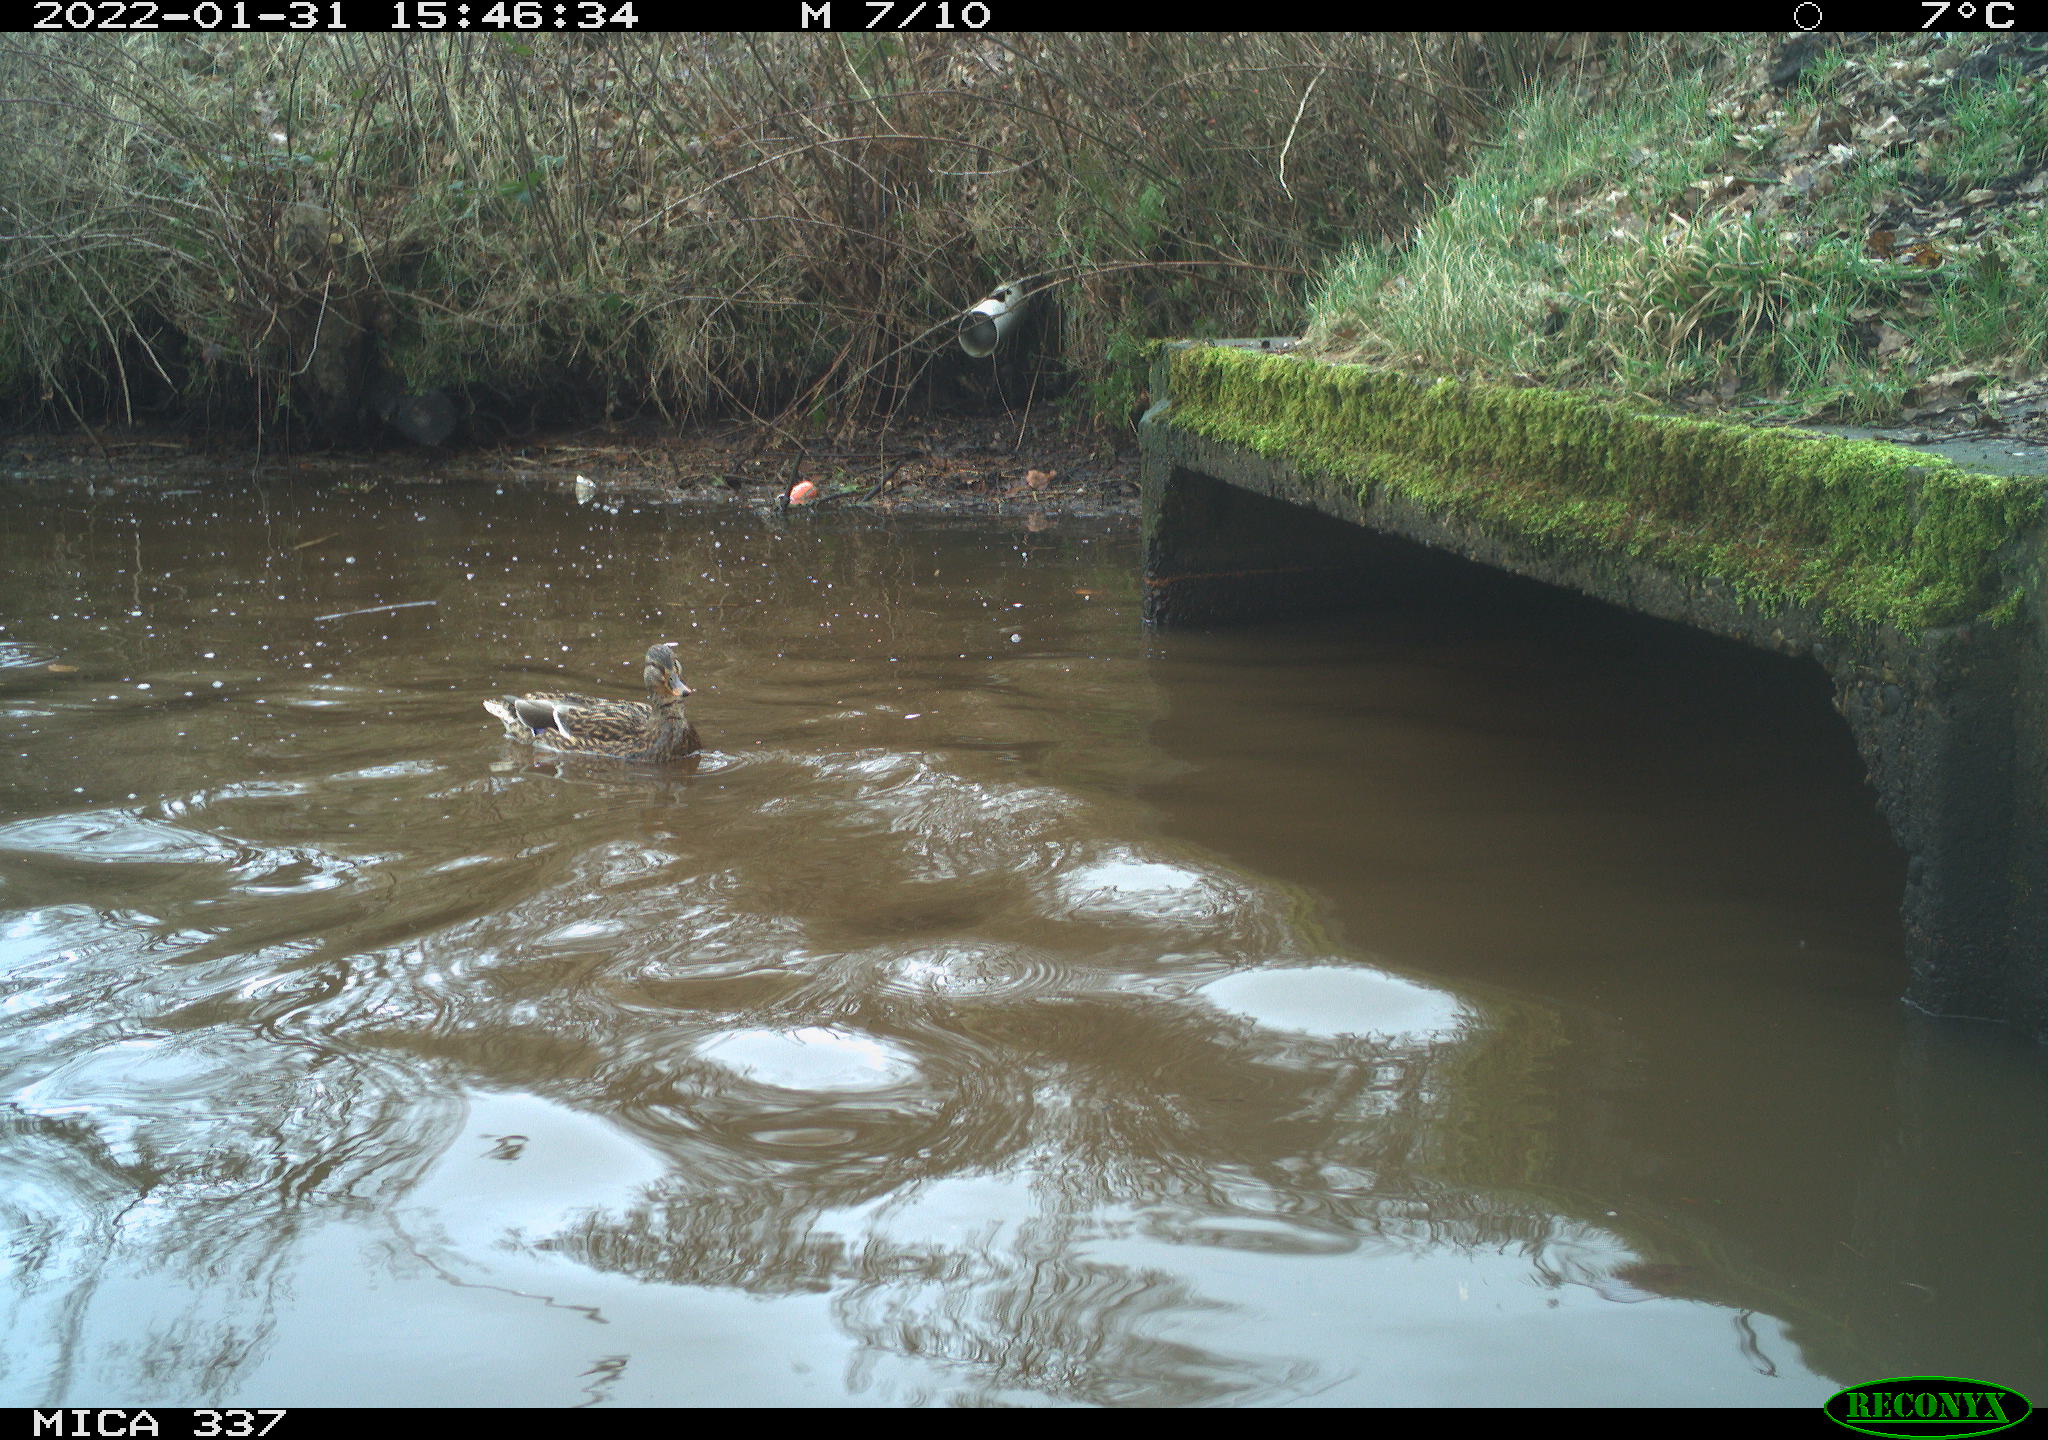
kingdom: Animalia
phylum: Chordata
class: Aves
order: Anseriformes
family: Anatidae
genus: Anas
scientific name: Anas platyrhynchos
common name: Mallard
